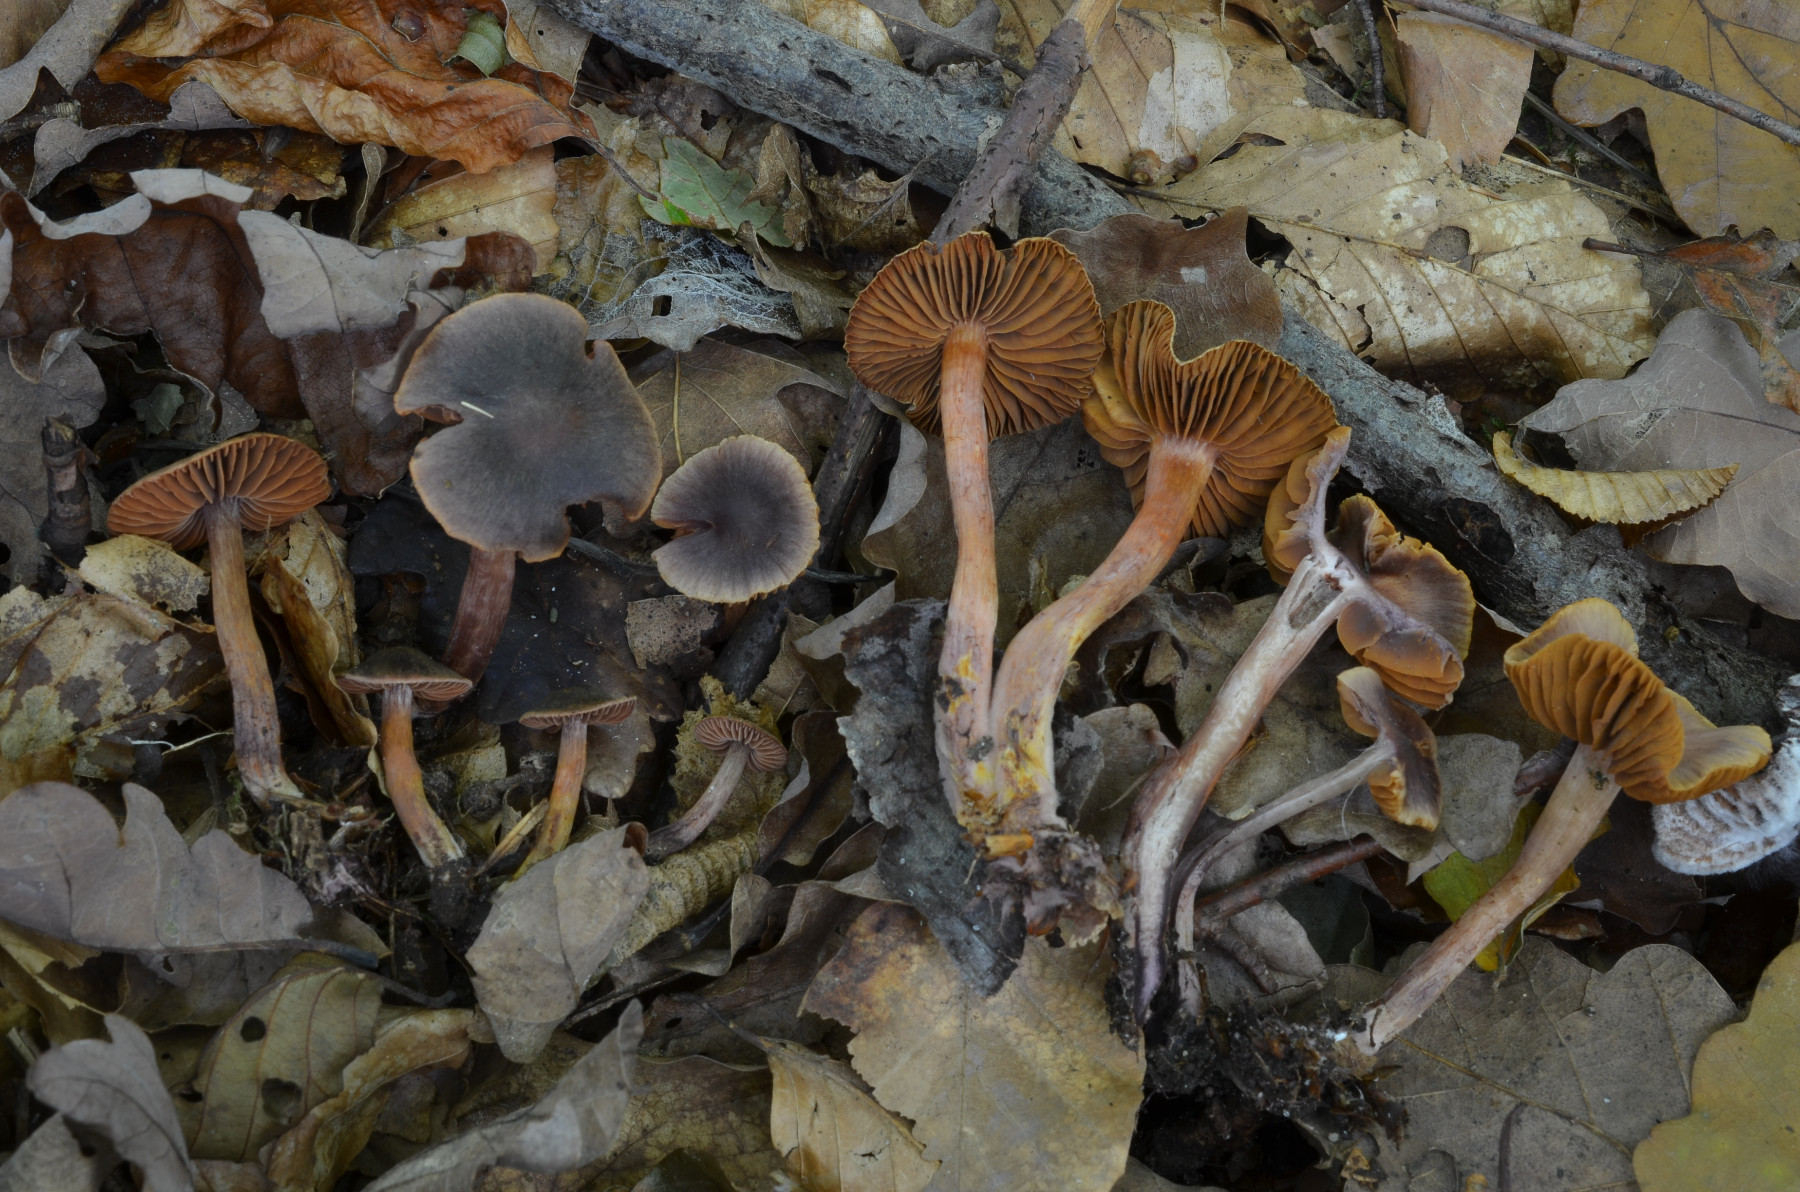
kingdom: Fungi
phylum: Basidiomycota
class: Agaricomycetes
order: Agaricales
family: Cortinariaceae
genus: Cortinarius
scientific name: Cortinarius anthracinus
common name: purpursort slørhat
